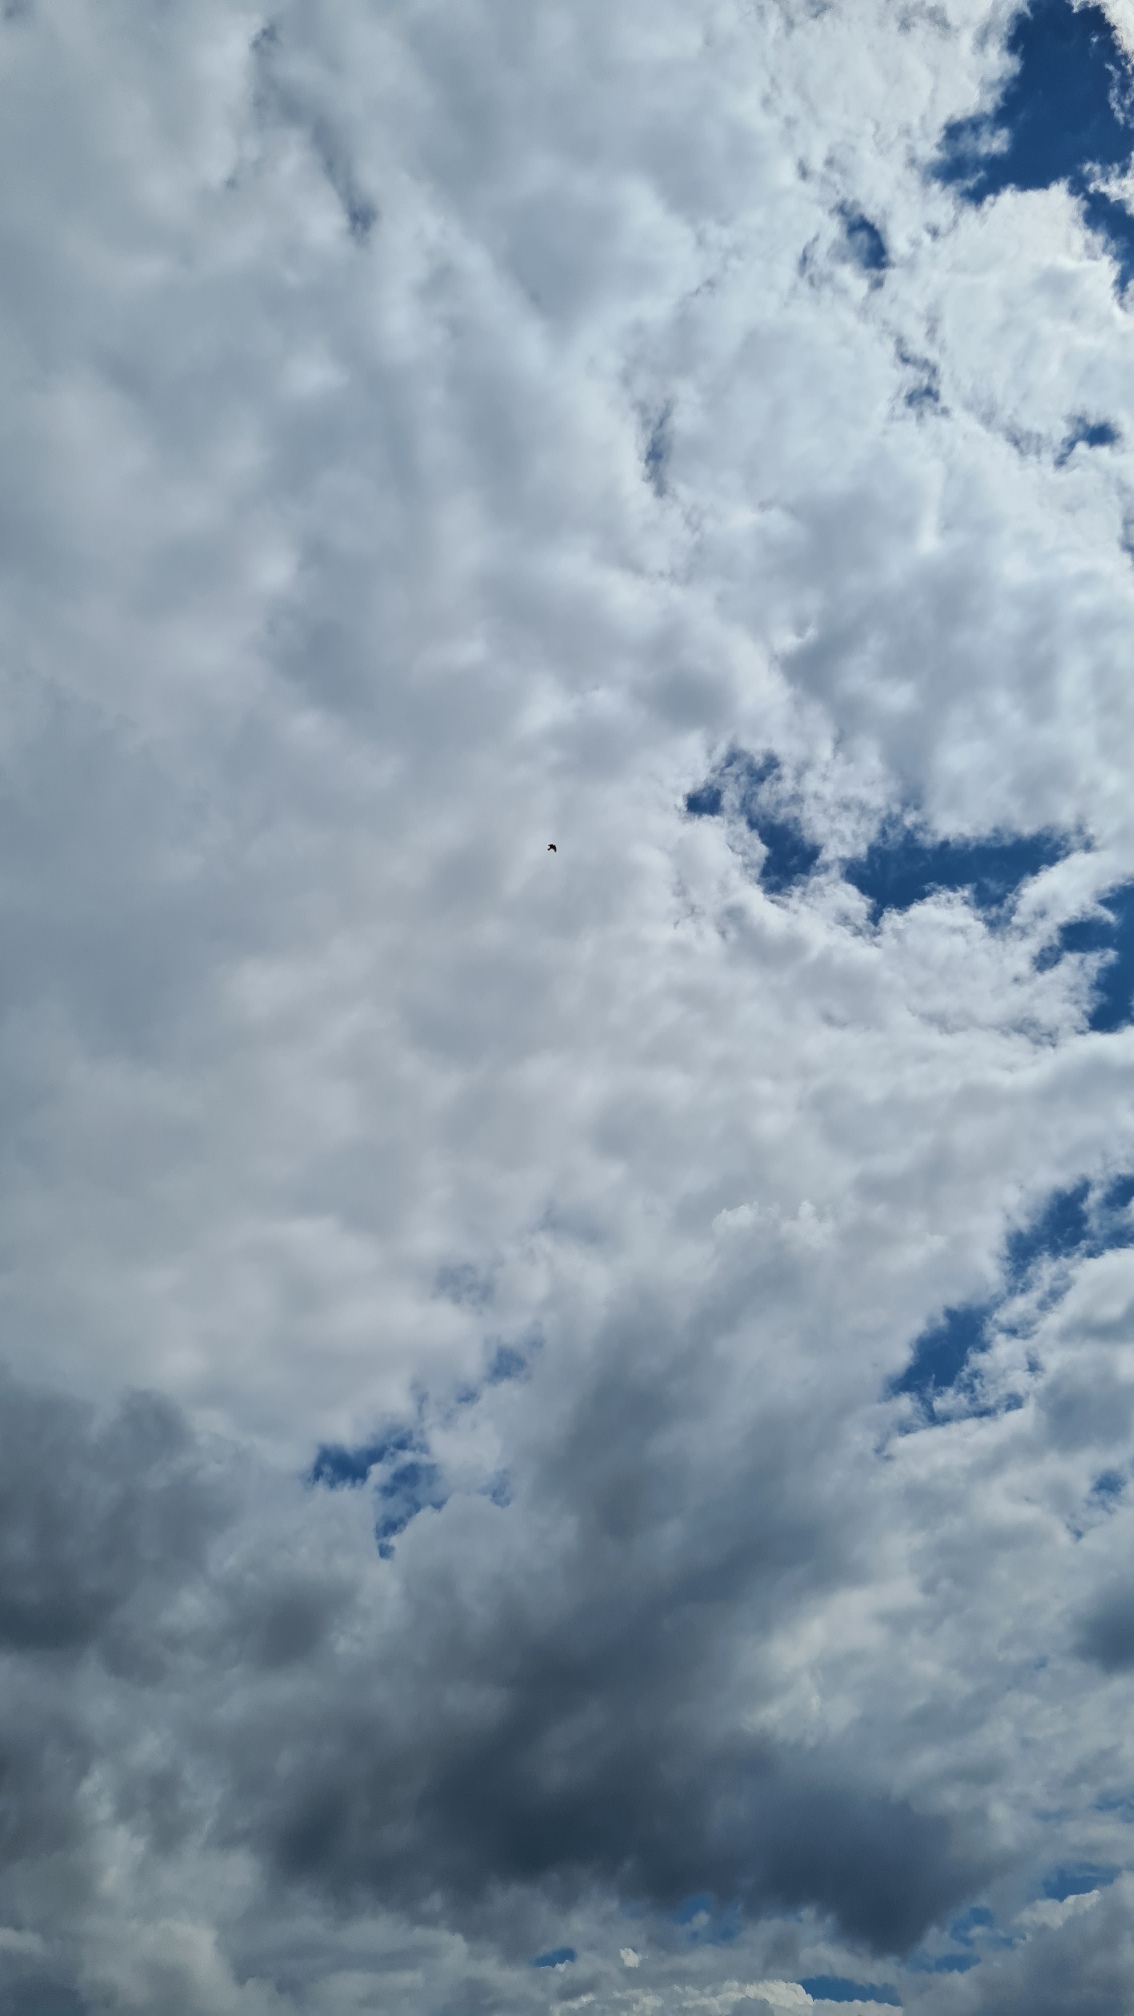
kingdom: Animalia
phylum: Chordata
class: Aves
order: Passeriformes
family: Alaudidae
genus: Alauda
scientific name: Alauda arvensis
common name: Sanglærke
